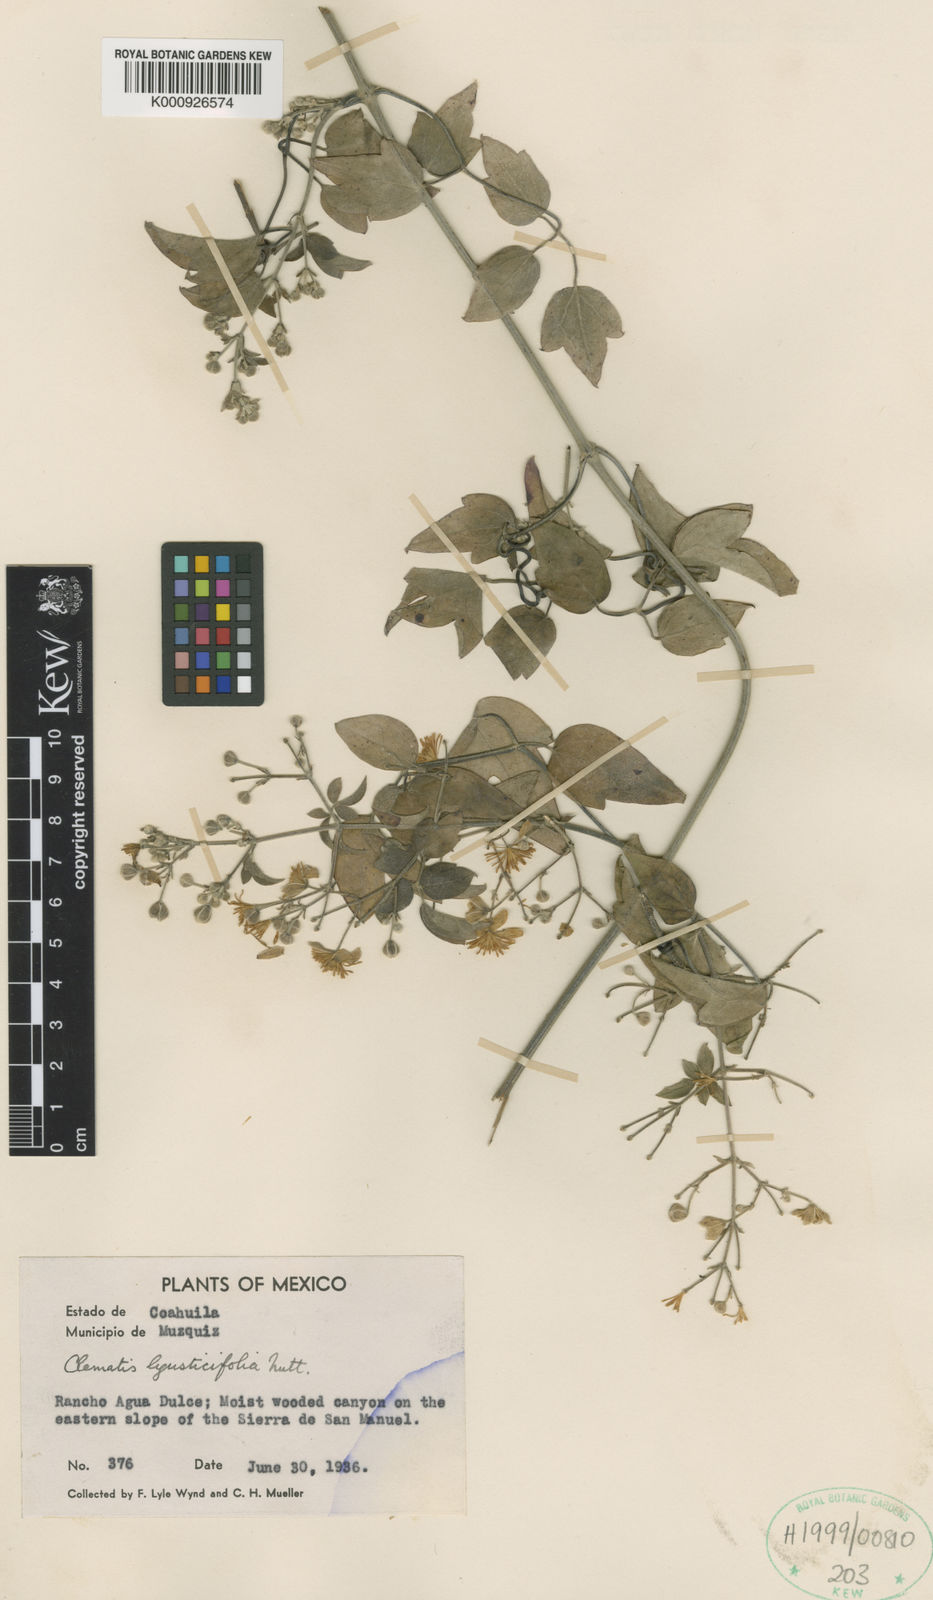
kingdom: Plantae
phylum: Tracheophyta
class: Magnoliopsida
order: Ranunculales
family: Ranunculaceae
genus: Clematis
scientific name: Clematis coahuilensis
